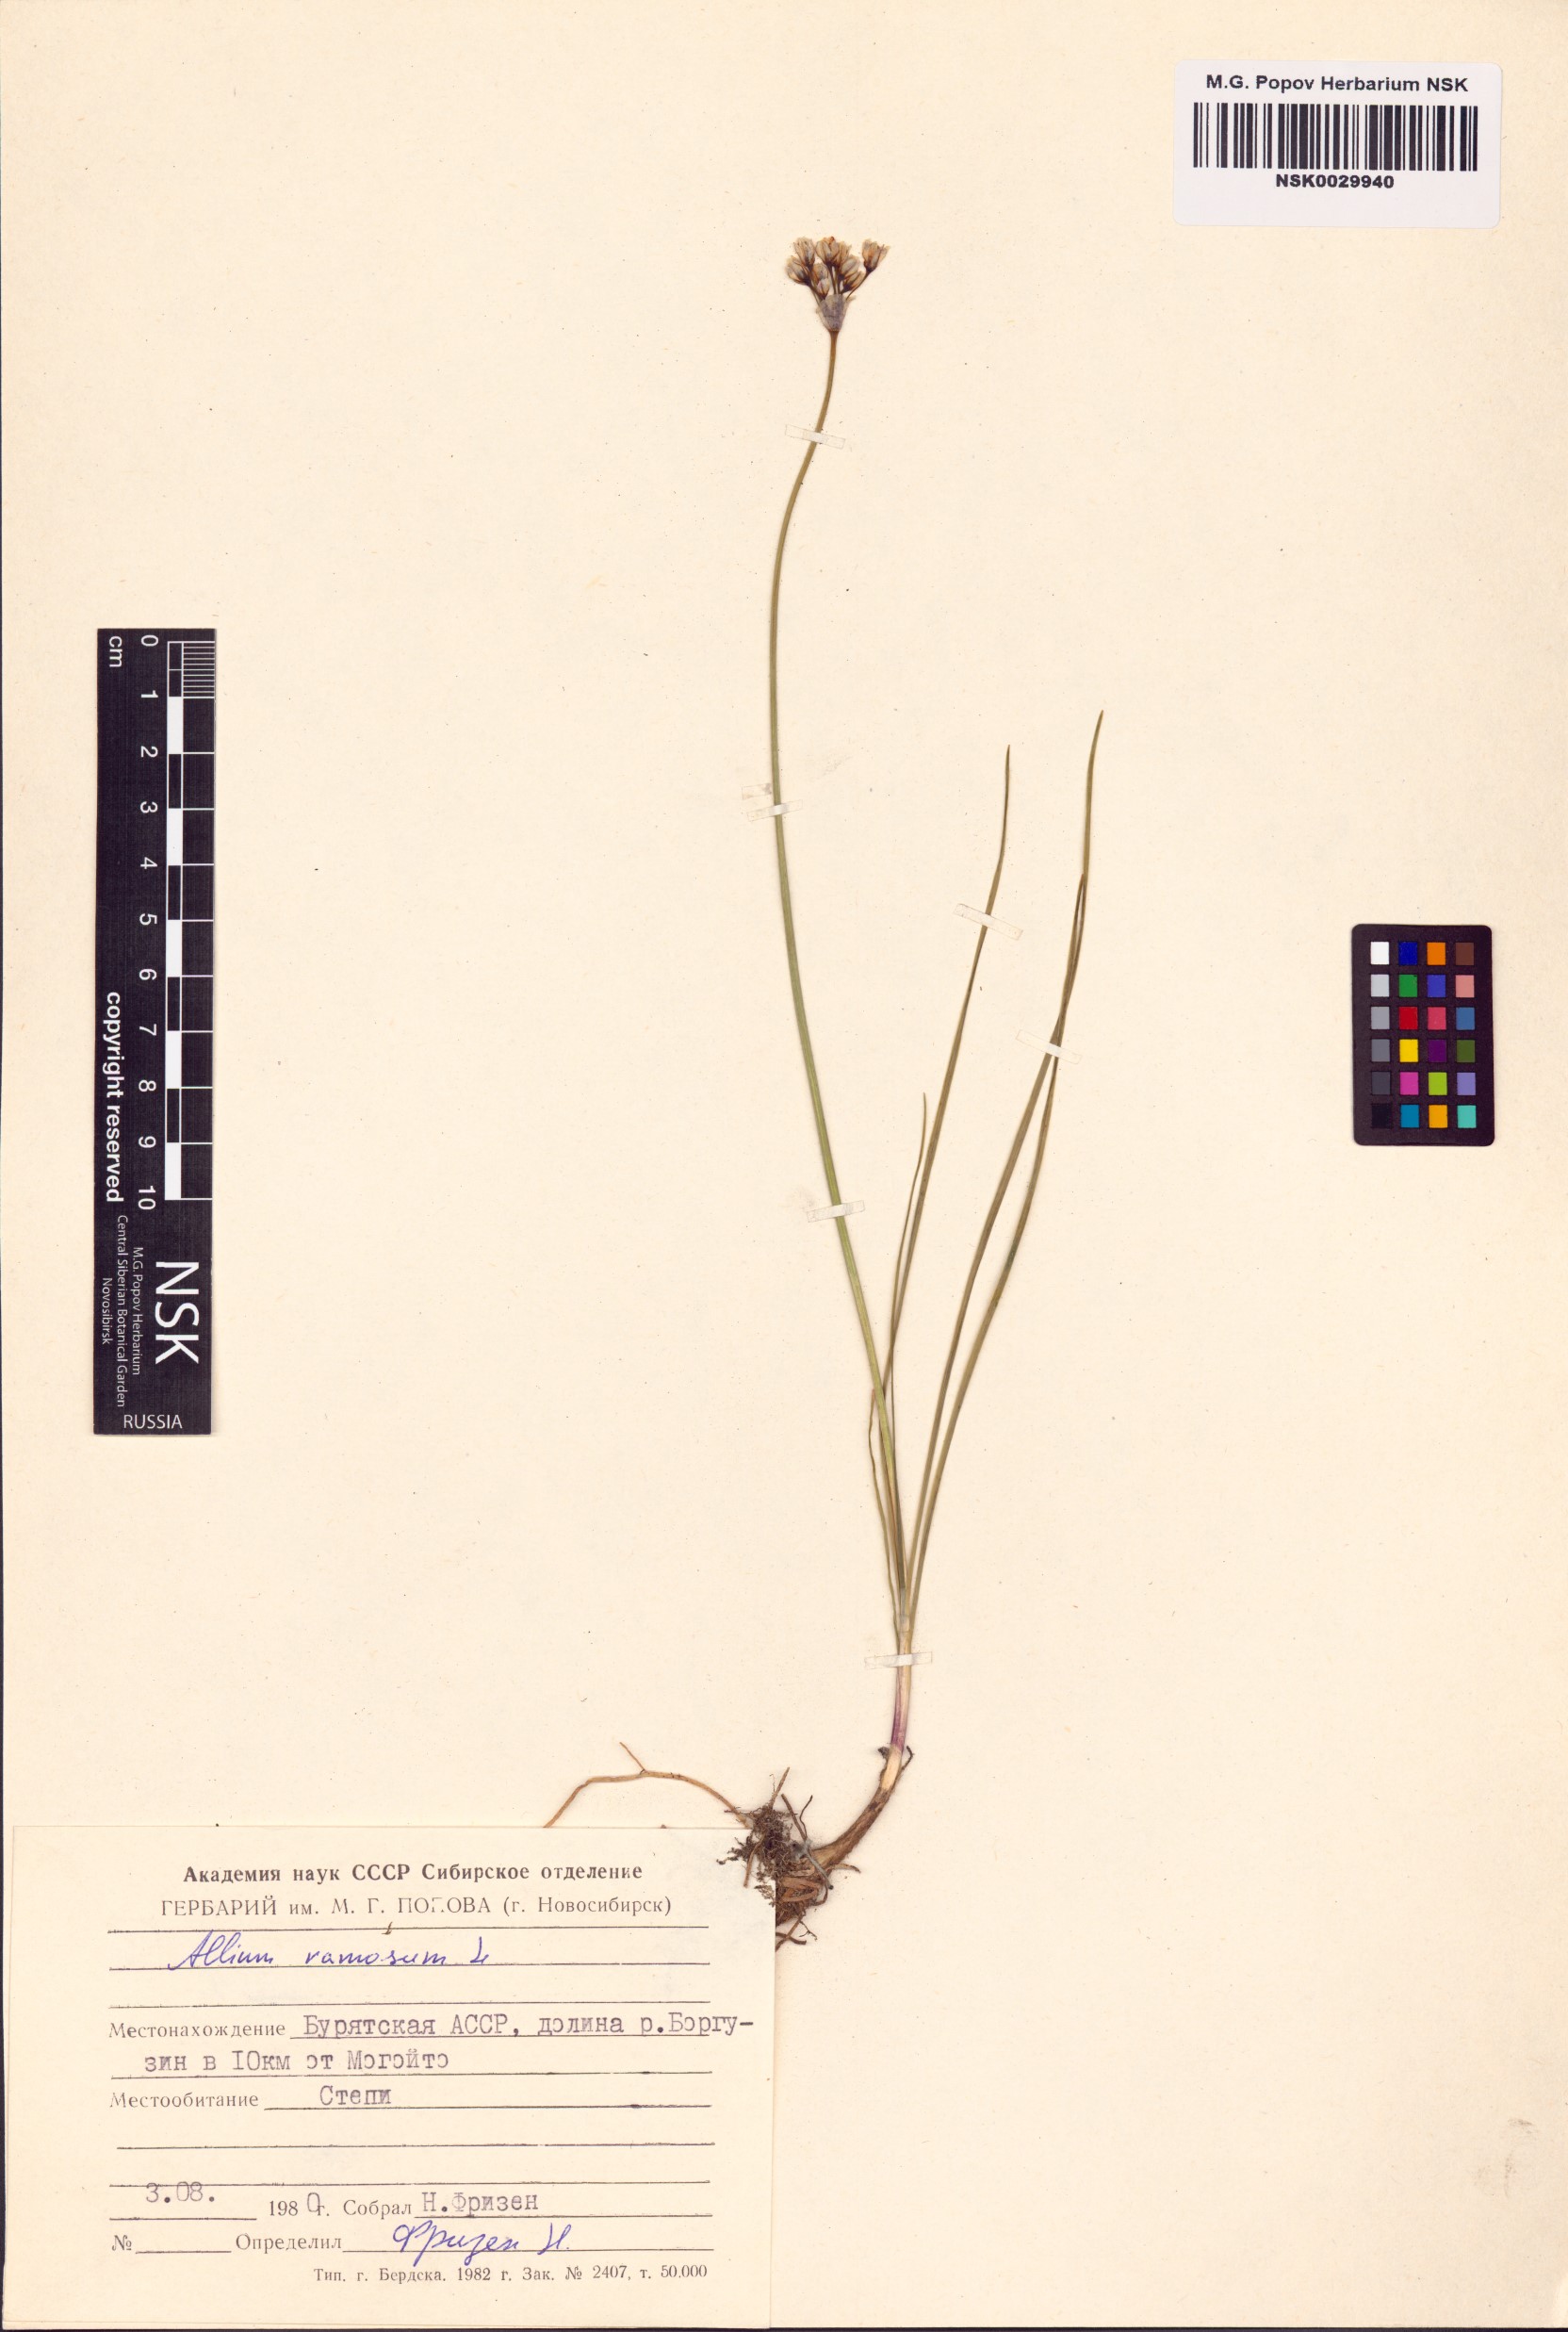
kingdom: Plantae
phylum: Tracheophyta
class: Liliopsida
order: Asparagales
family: Amaryllidaceae
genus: Allium
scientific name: Allium ramosum
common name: Fragrant garlic
